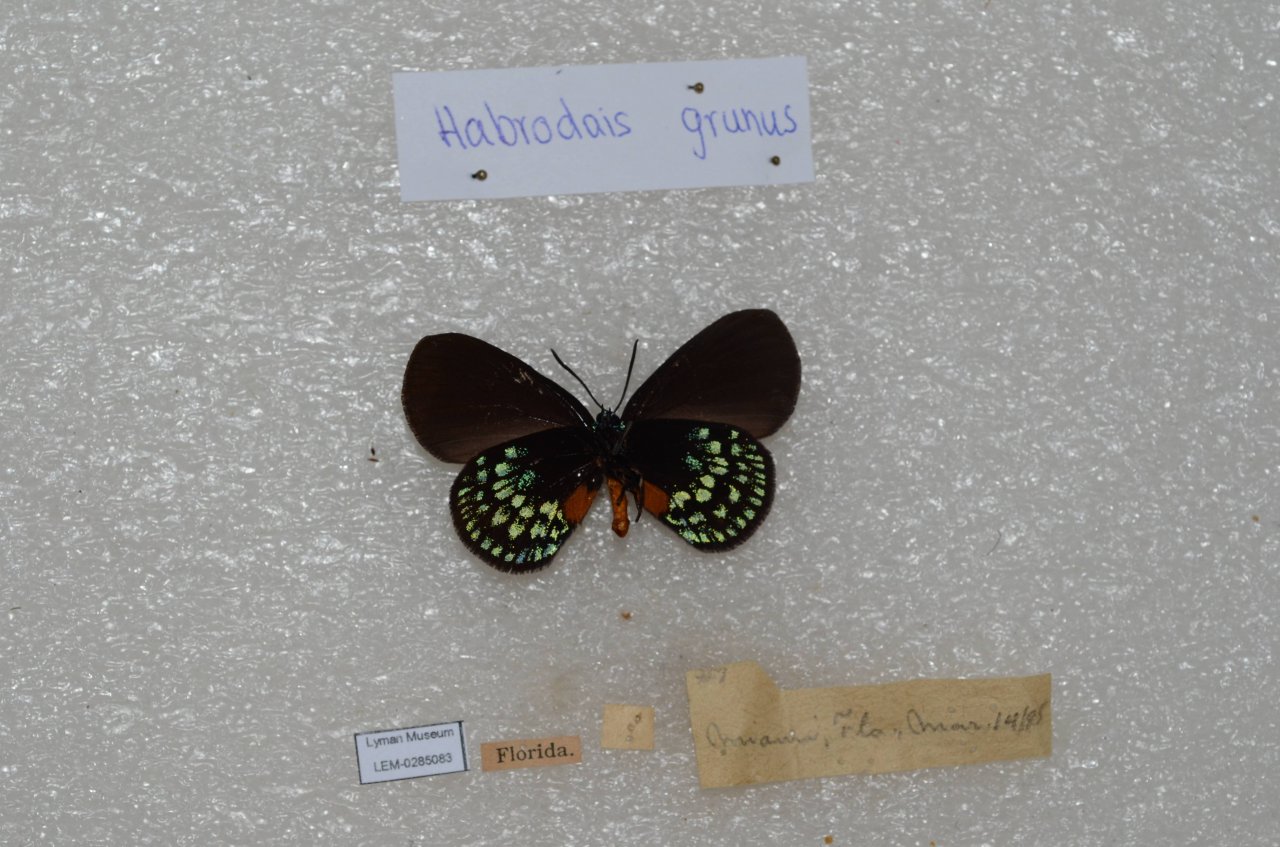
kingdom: Animalia
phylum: Arthropoda
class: Insecta
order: Lepidoptera
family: Lycaenidae
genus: Eumaeus
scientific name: Eumaeus atala
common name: Atala
